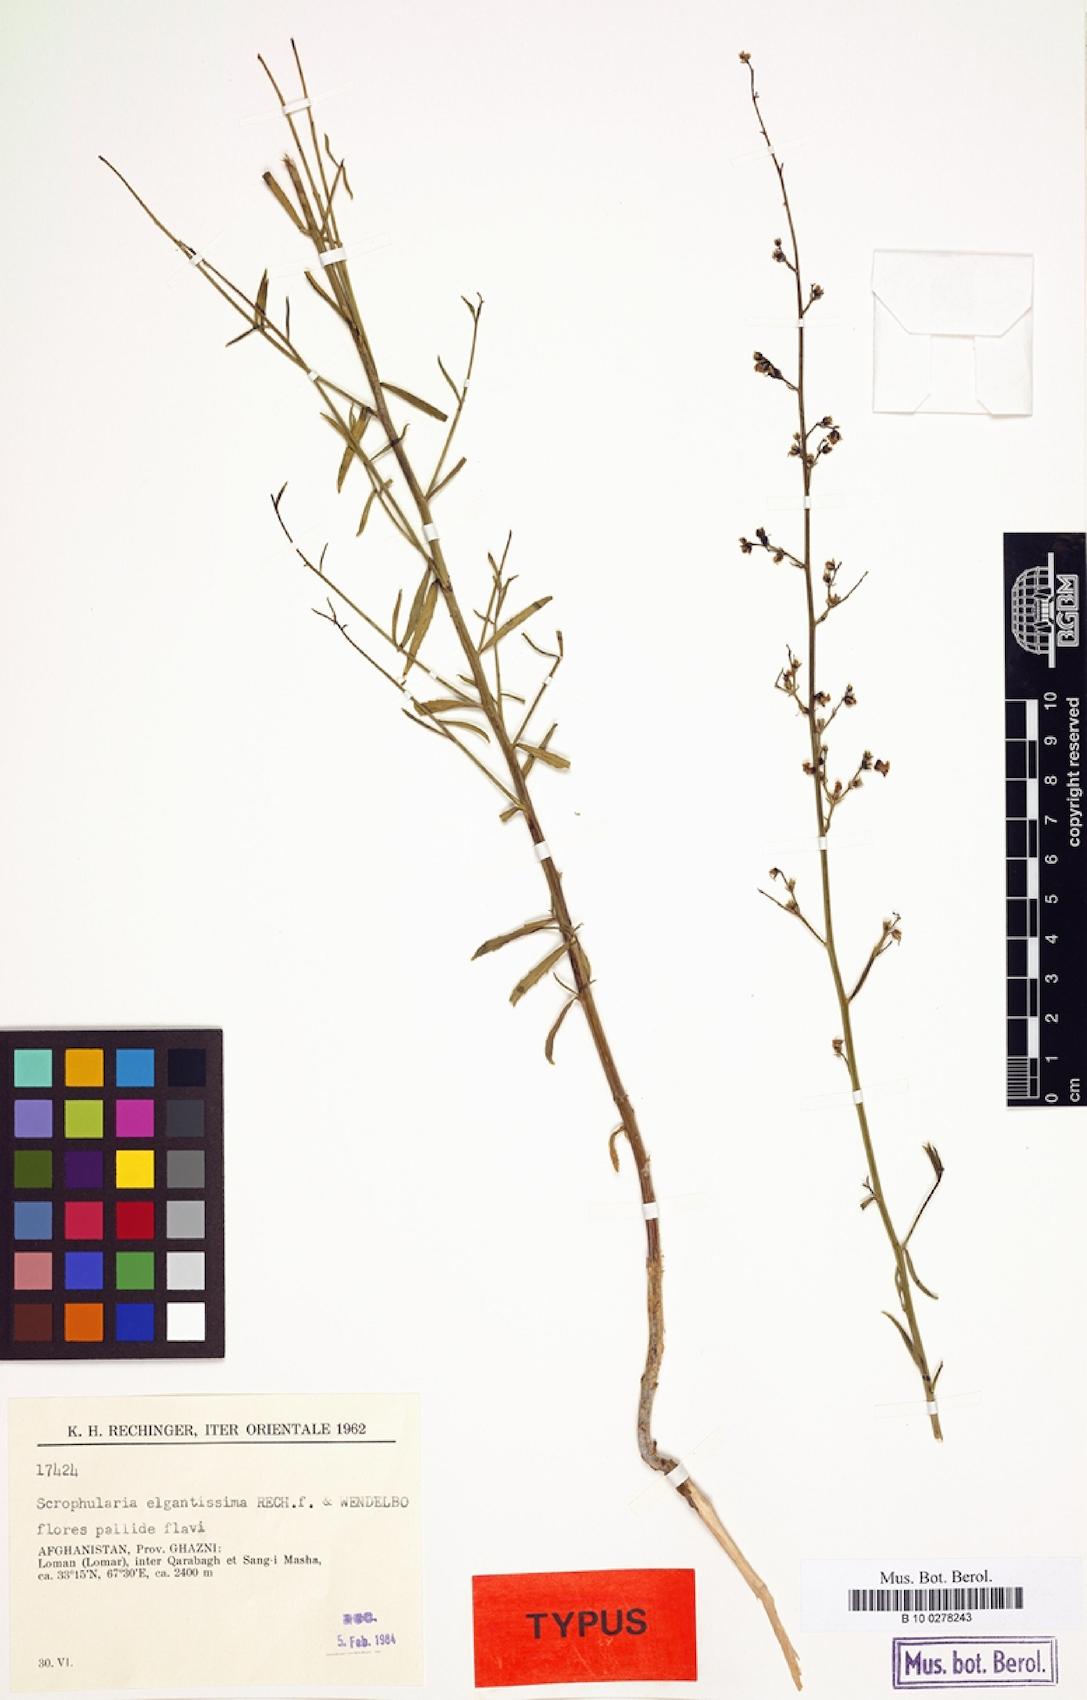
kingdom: Plantae
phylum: Tracheophyta
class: Magnoliopsida
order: Lamiales
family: Scrophulariaceae
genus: Scrophularia
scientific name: Scrophularia cabulica
